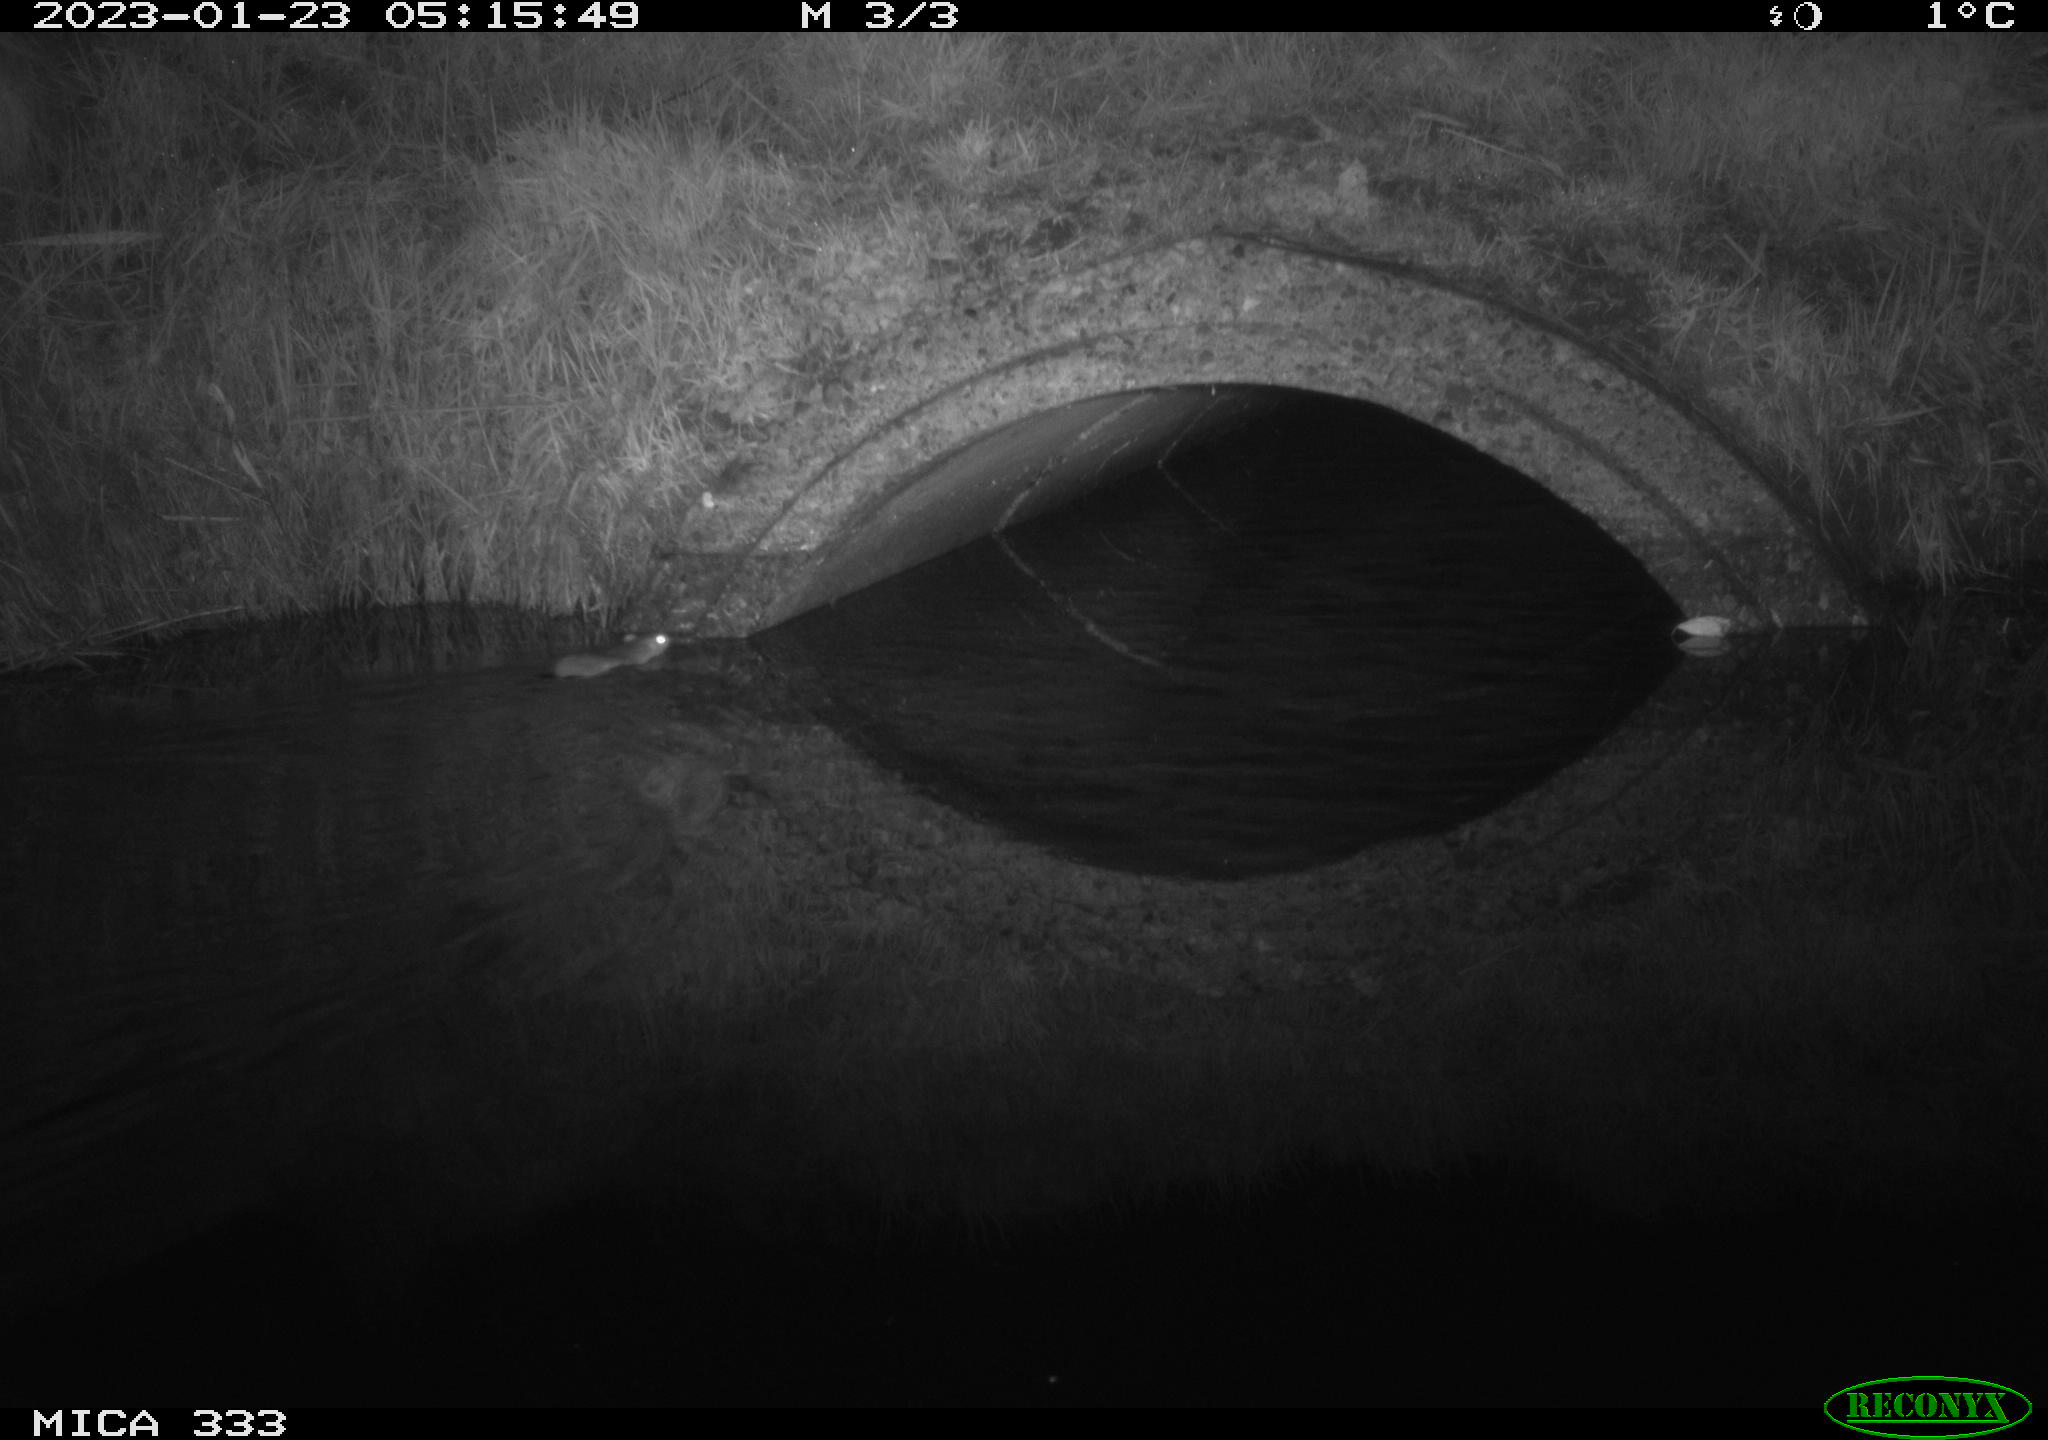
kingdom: Animalia
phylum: Chordata
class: Mammalia
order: Rodentia
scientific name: Rodentia
